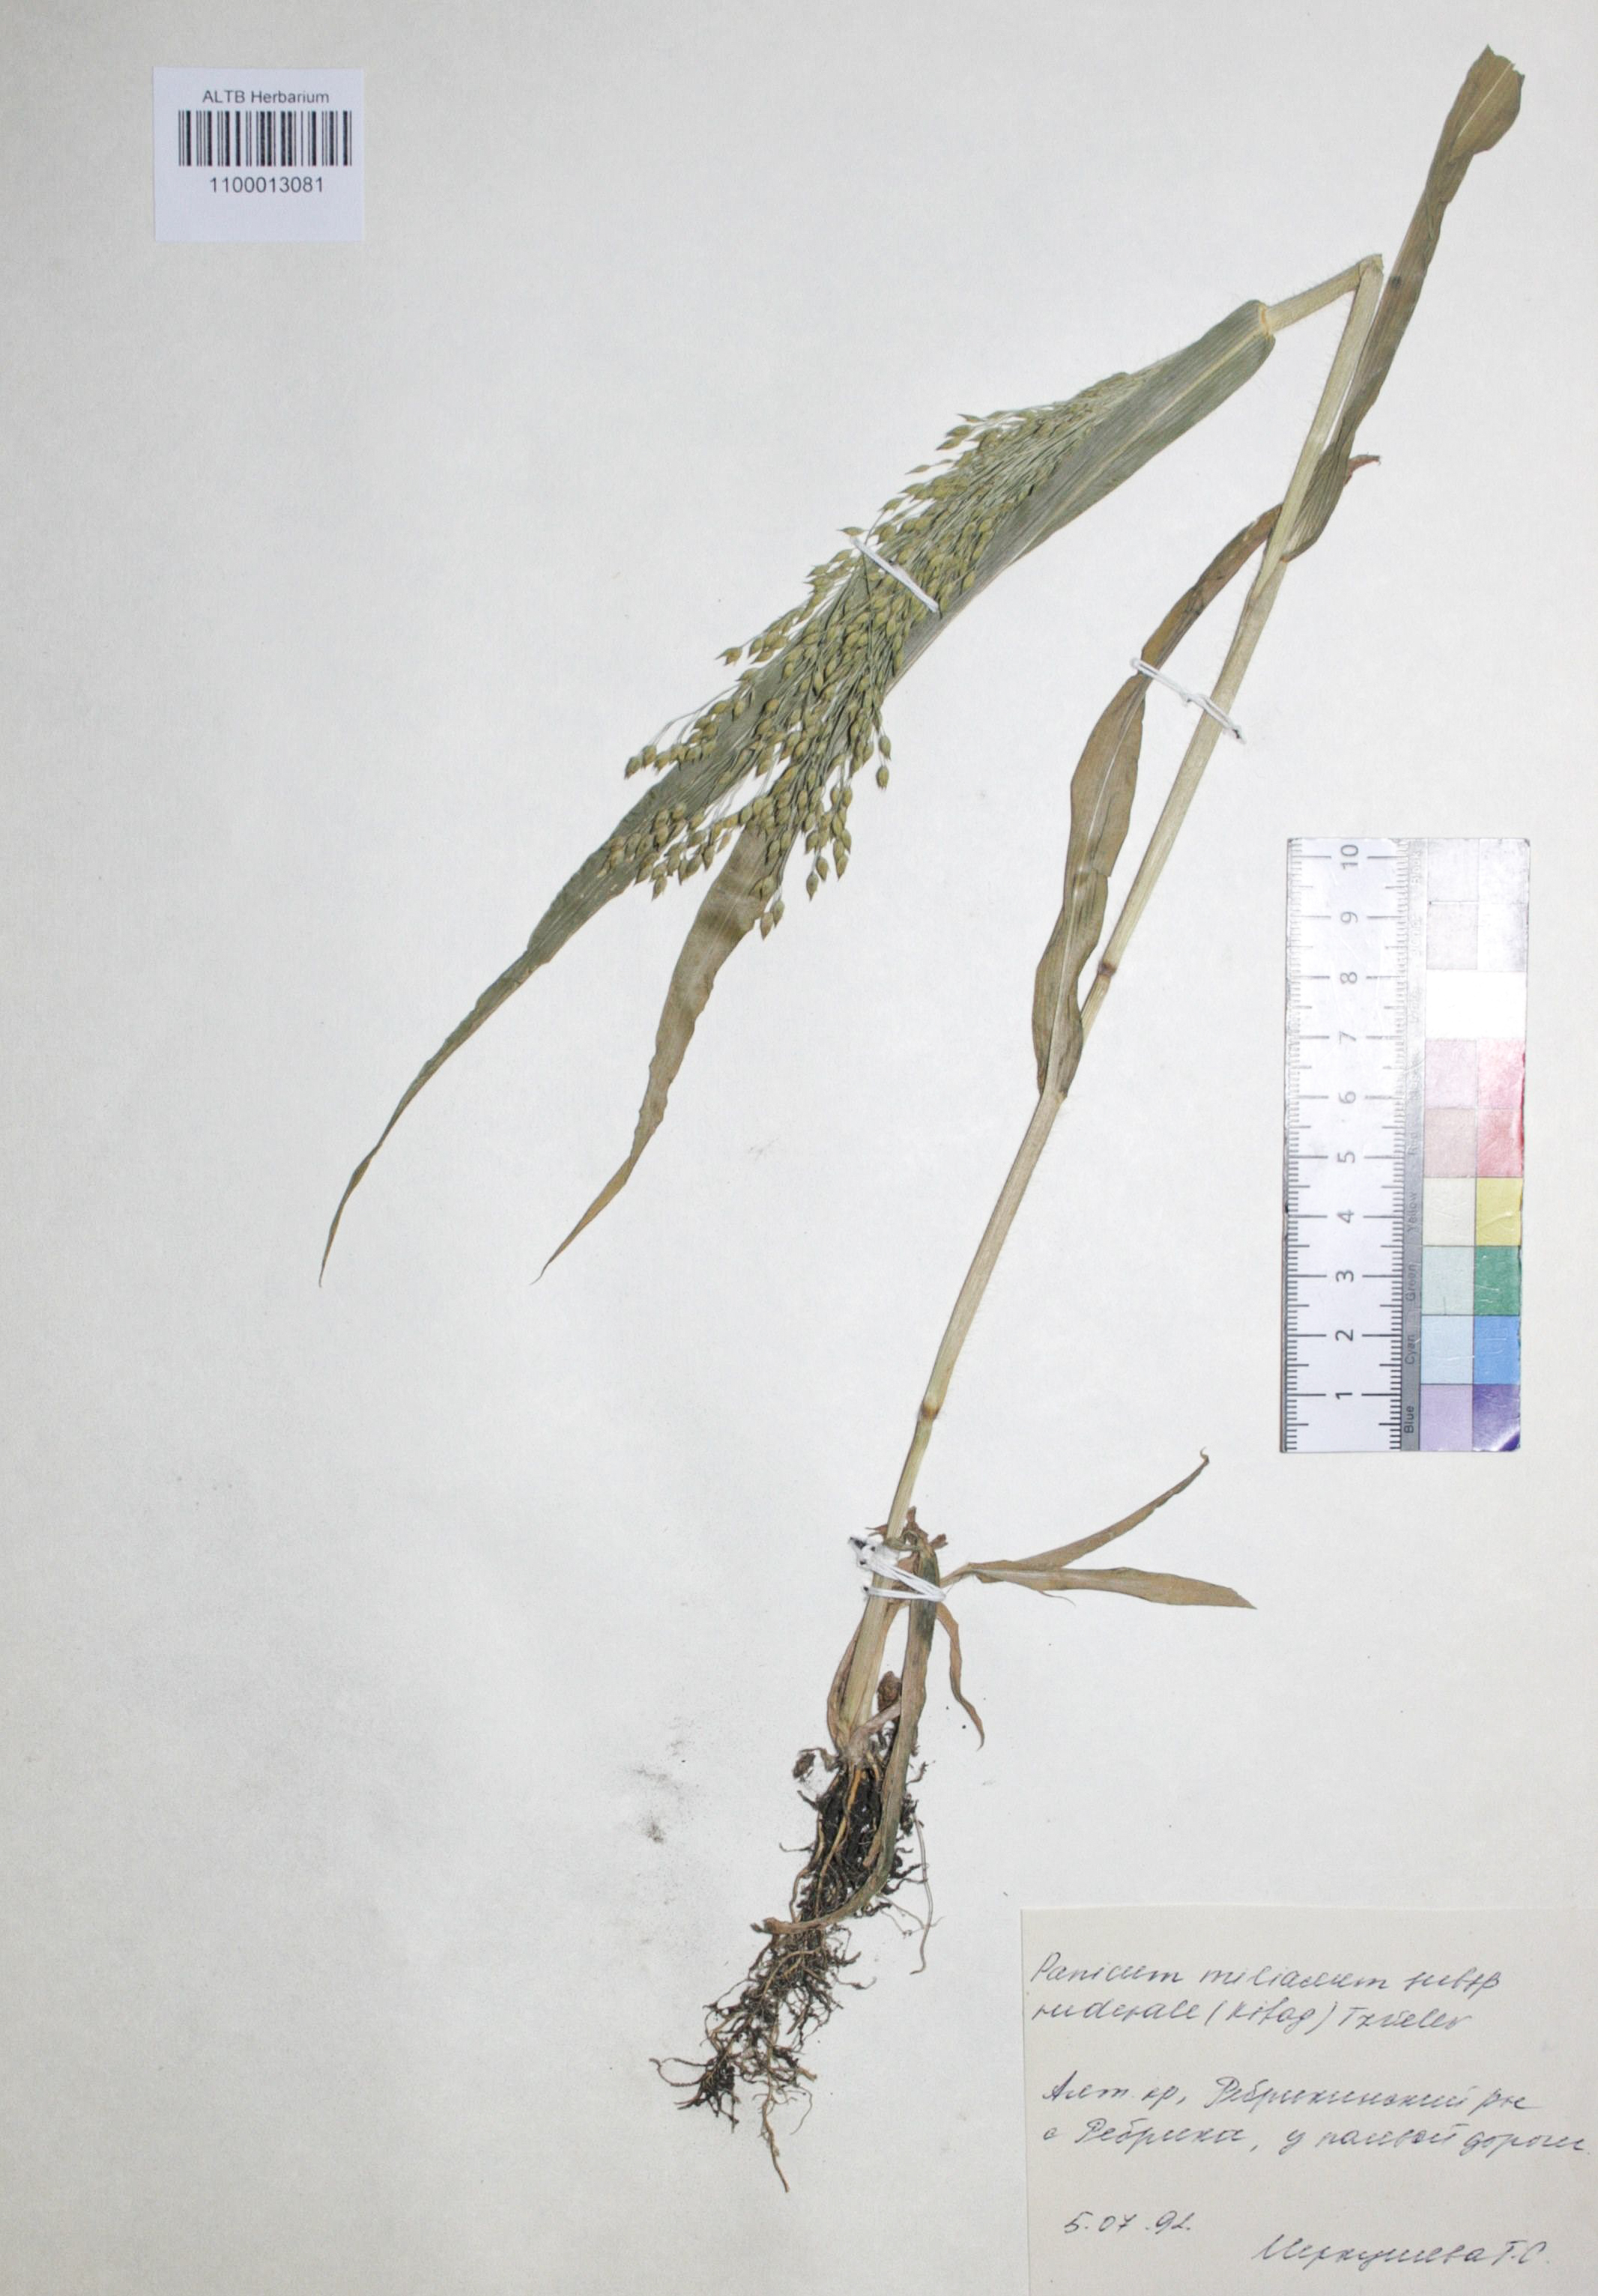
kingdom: Plantae
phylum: Tracheophyta
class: Liliopsida
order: Poales
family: Poaceae
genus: Panicum
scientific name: Panicum miliaceum
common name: Common millet
